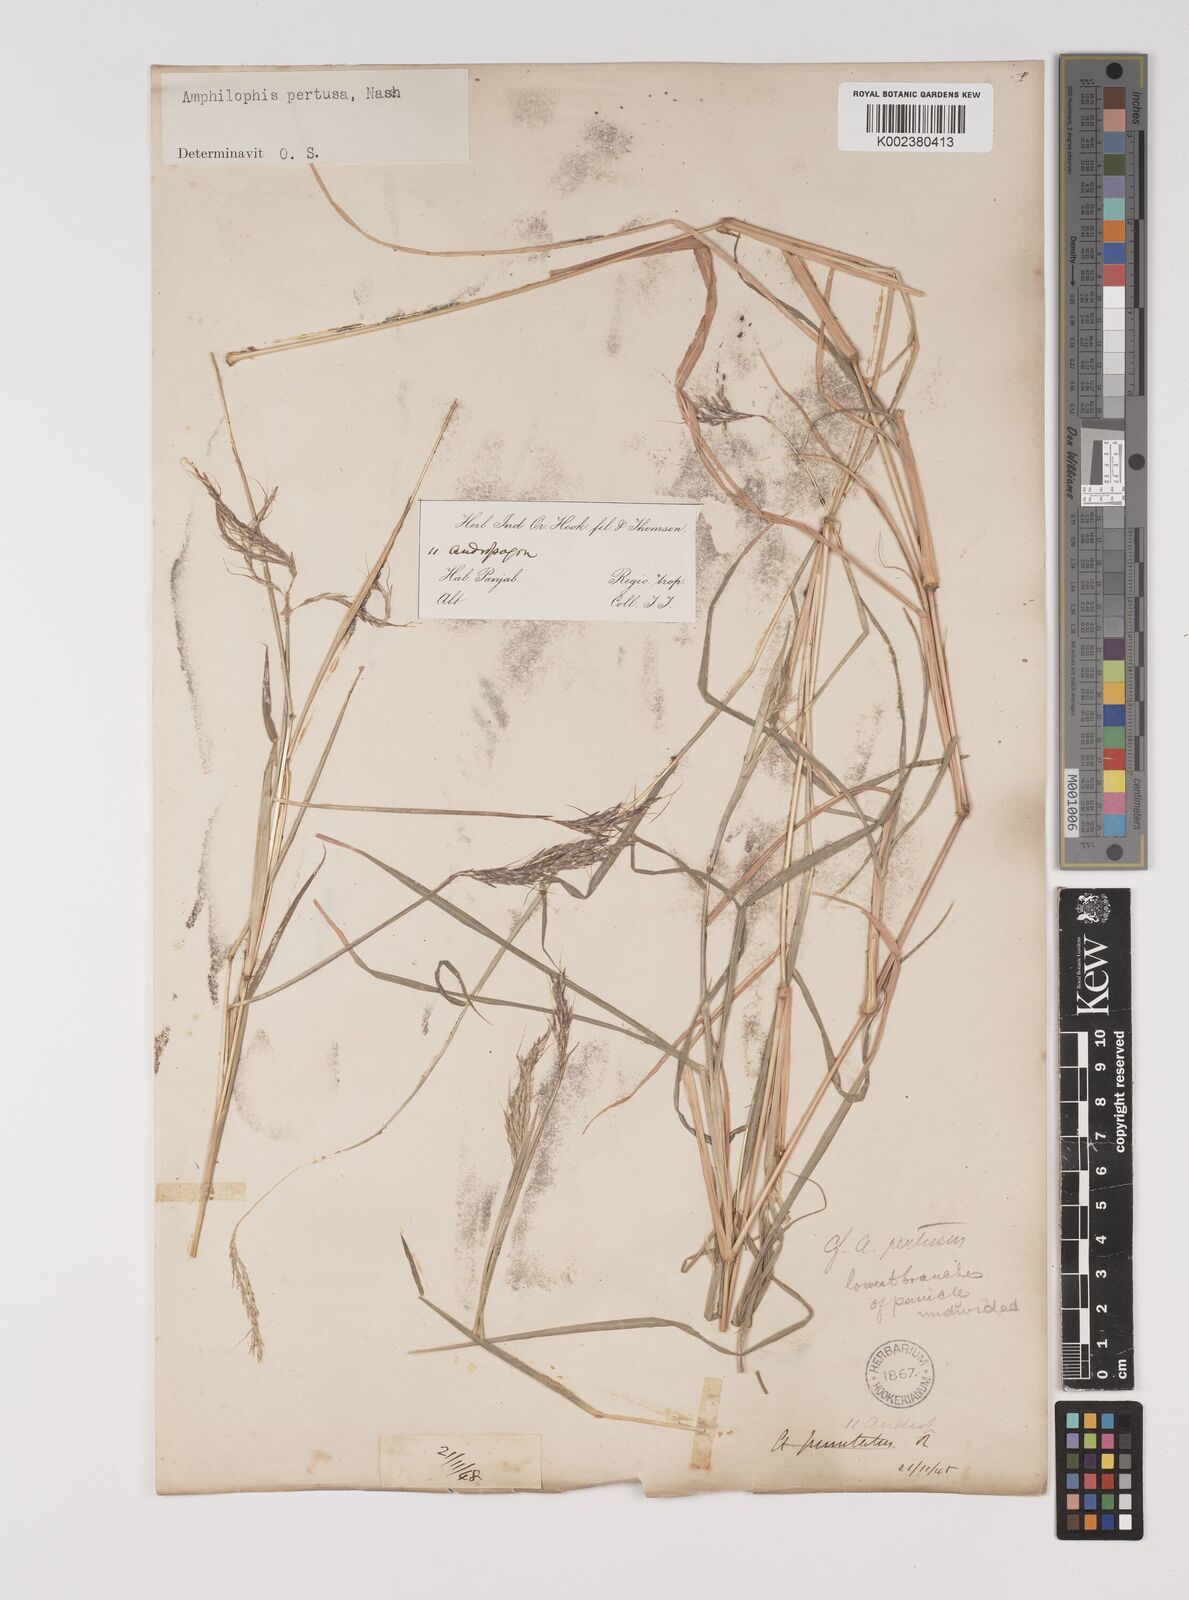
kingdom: Plantae
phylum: Tracheophyta
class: Liliopsida
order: Poales
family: Poaceae
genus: Bothriochloa
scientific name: Bothriochloa pertusa
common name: Pitted beardgrass
